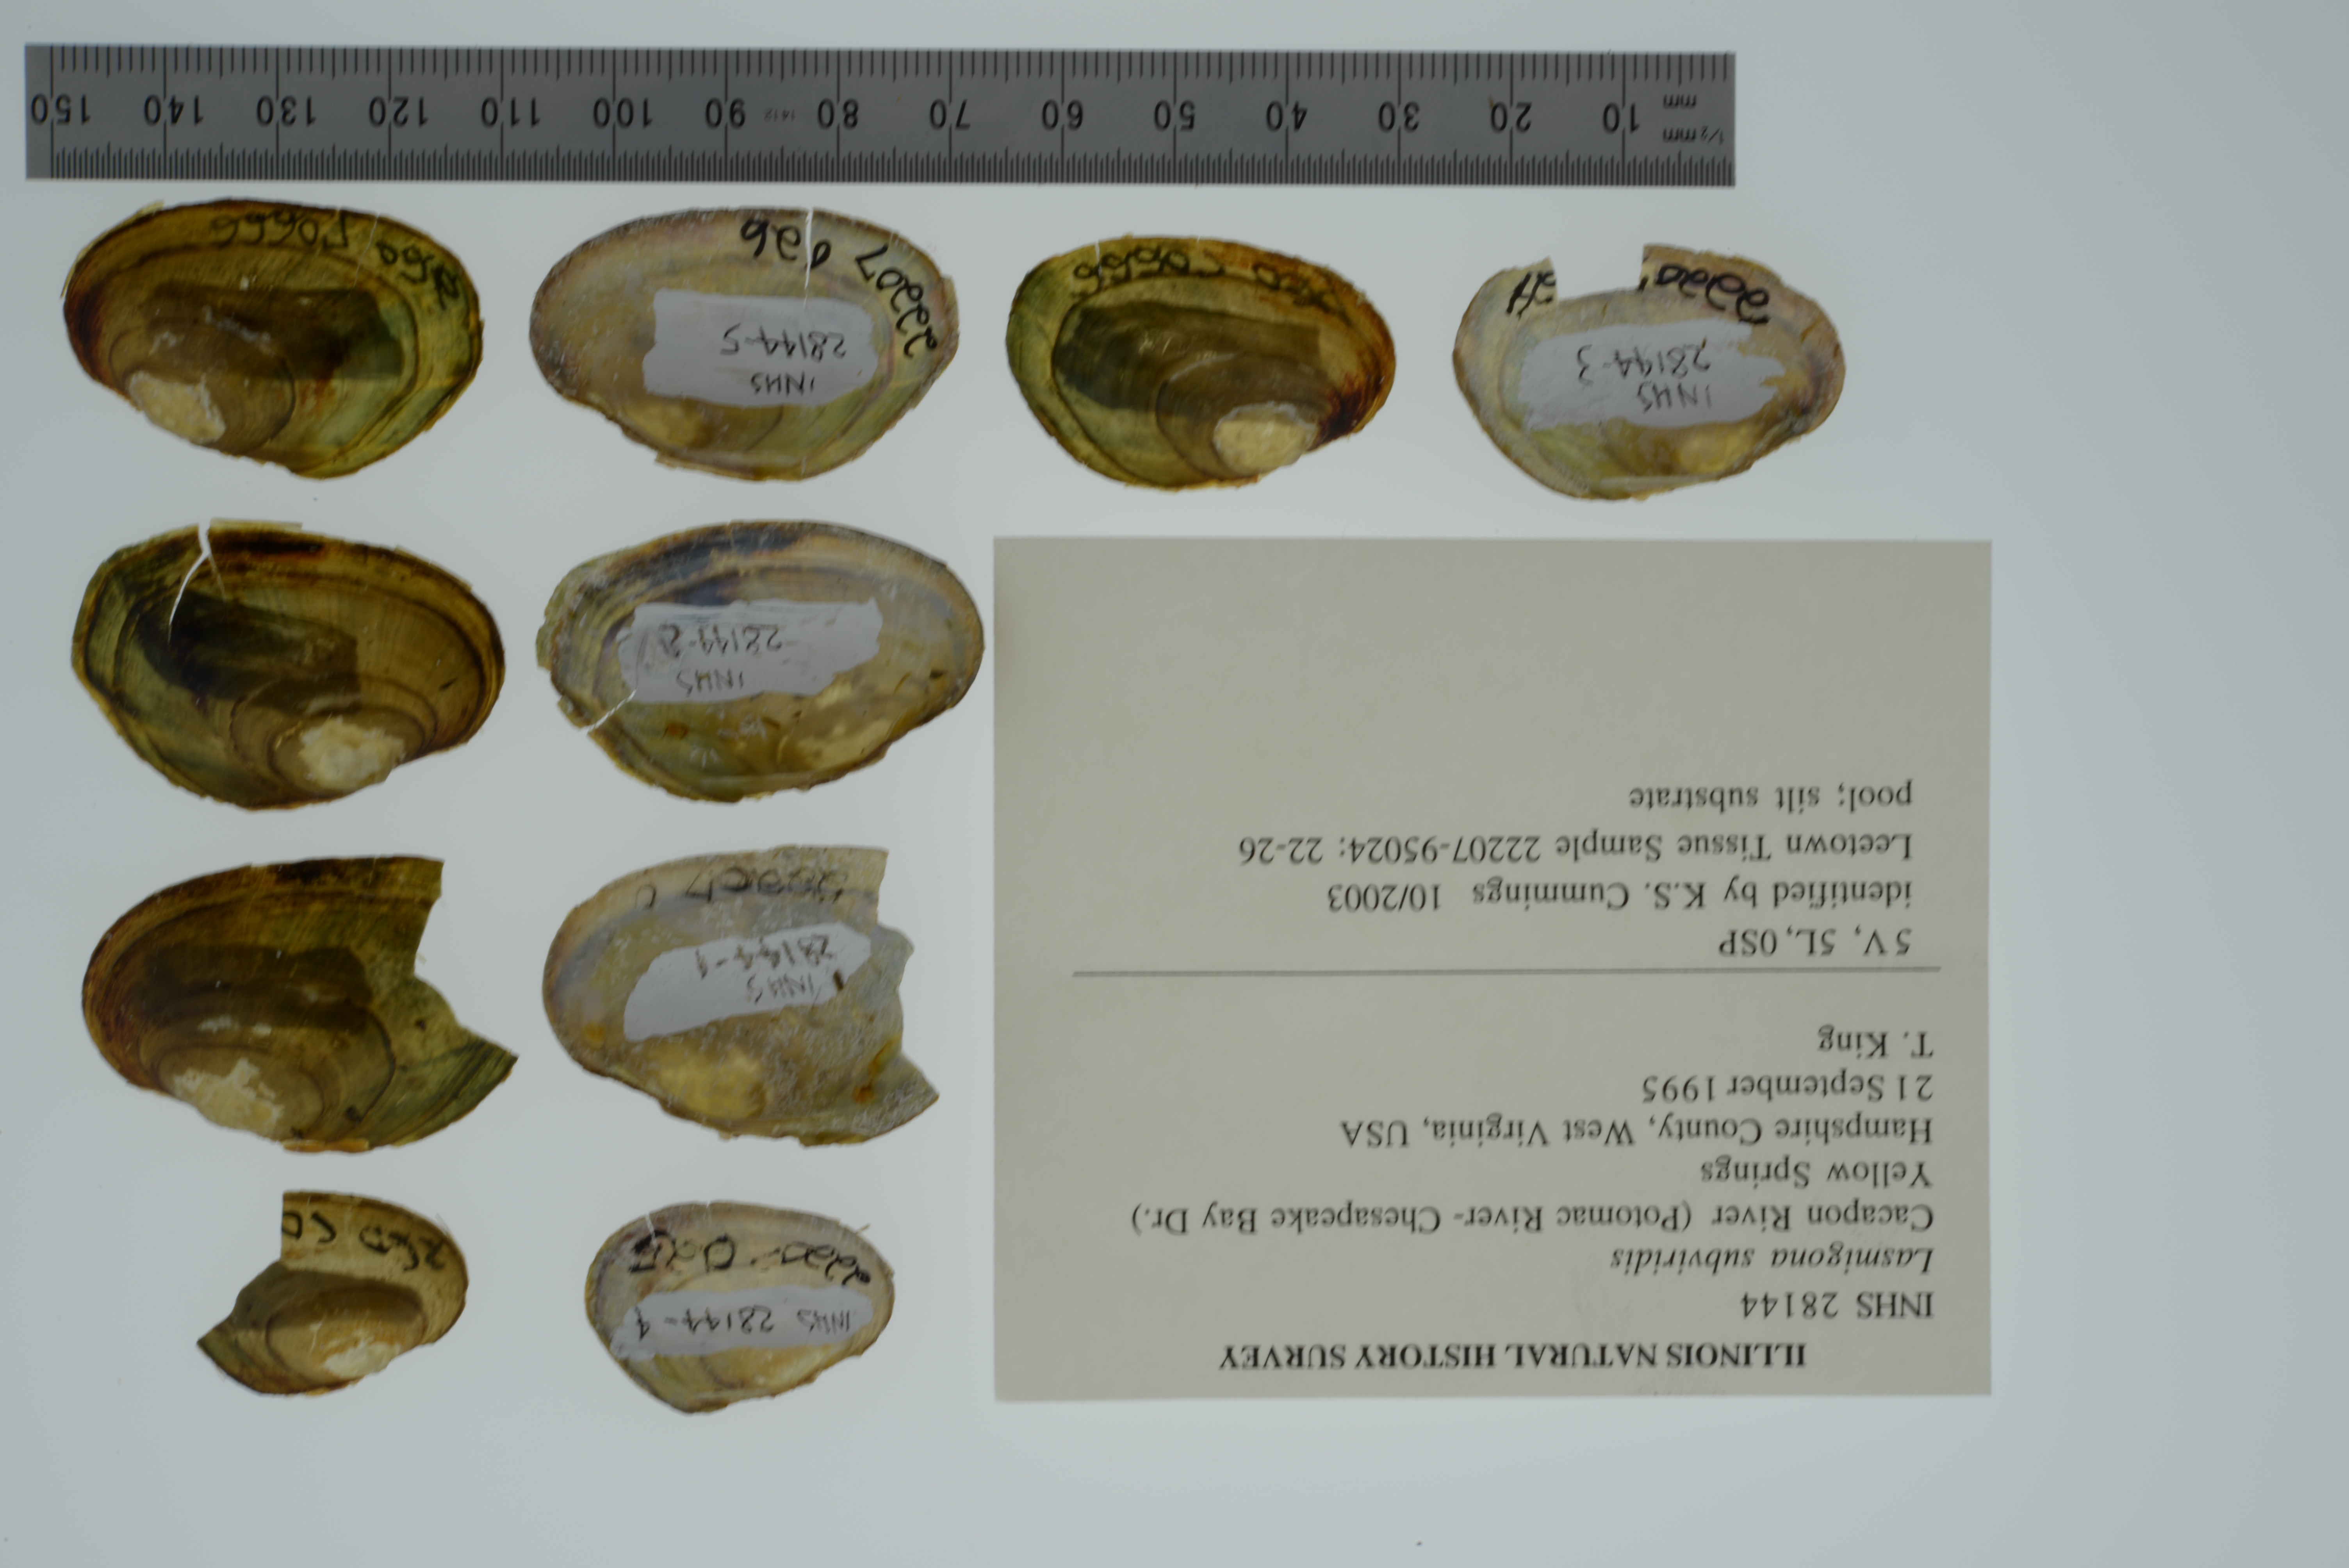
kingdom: Animalia
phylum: Mollusca
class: Bivalvia
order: Unionida
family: Unionidae
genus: Lasmigona
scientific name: Lasmigona subviridis
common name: Green floater
